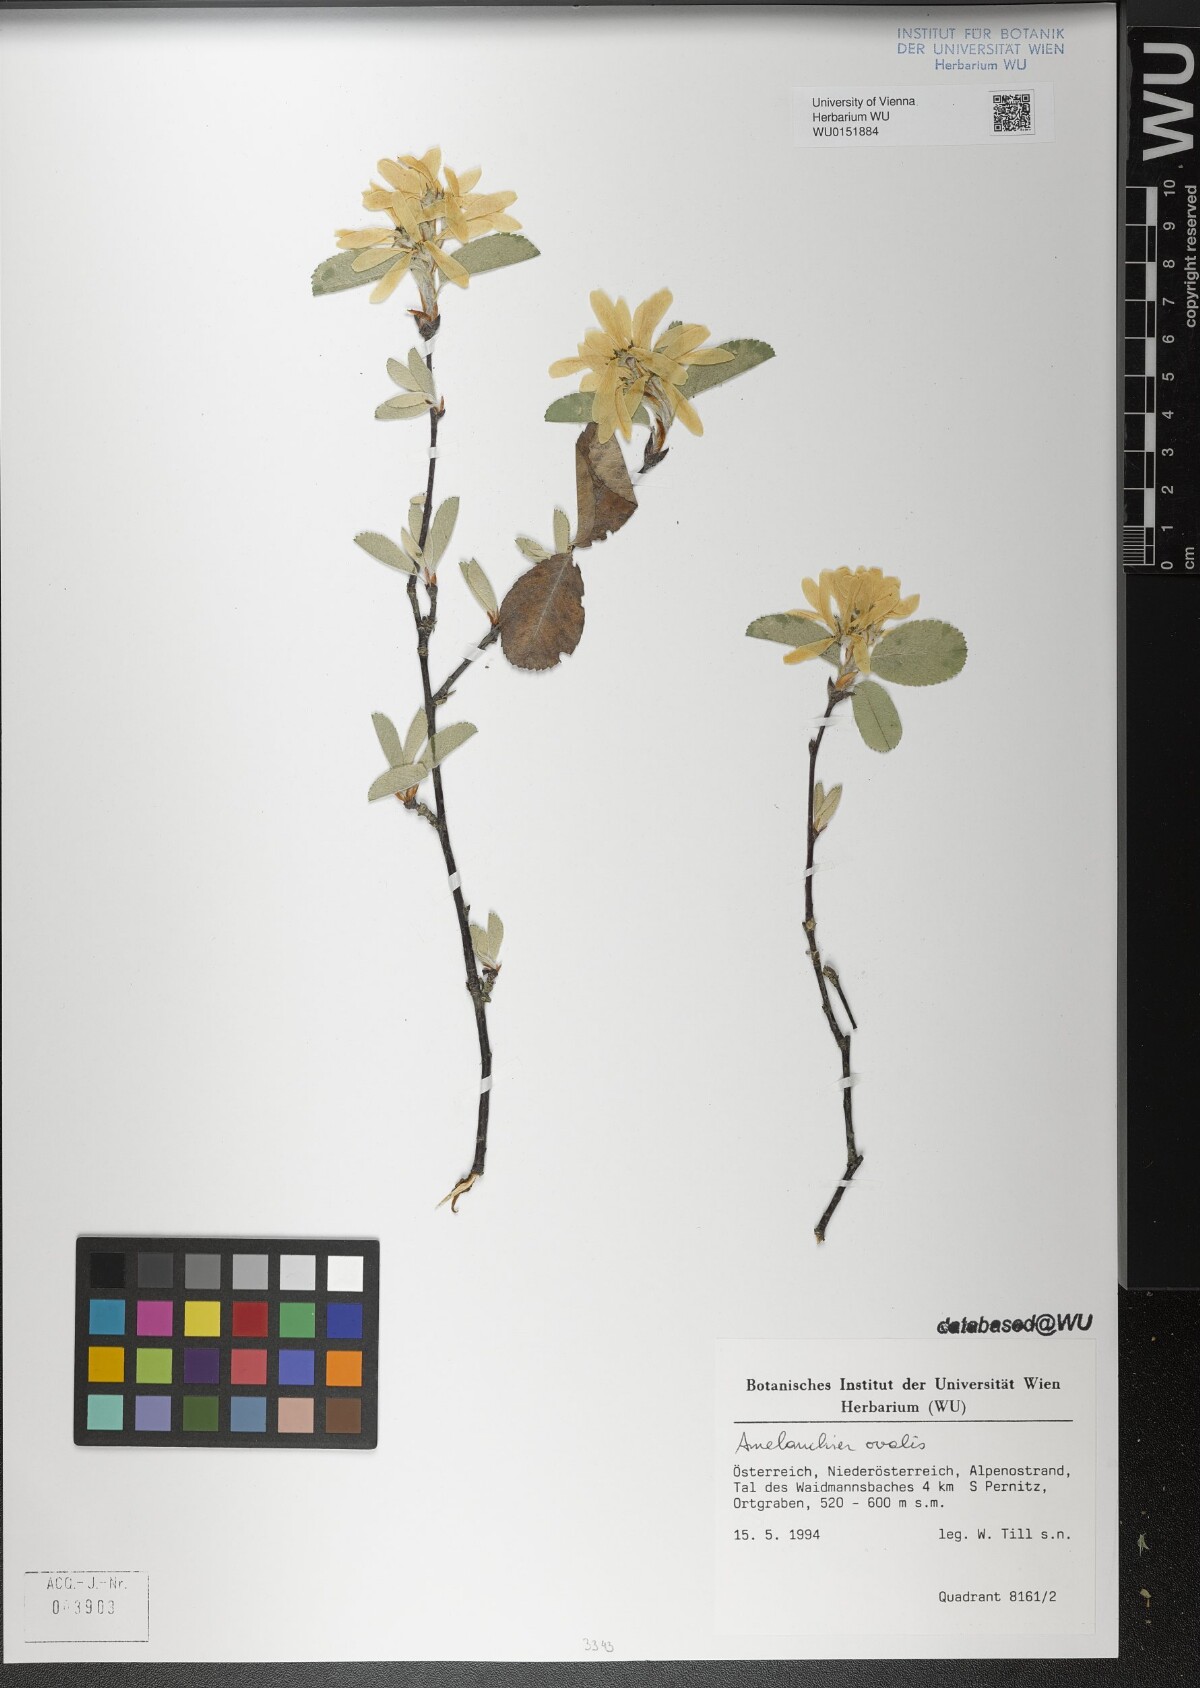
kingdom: Plantae
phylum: Tracheophyta
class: Magnoliopsida
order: Rosales
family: Rosaceae
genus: Amelanchier
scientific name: Amelanchier ovalis
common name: Serviceberry
